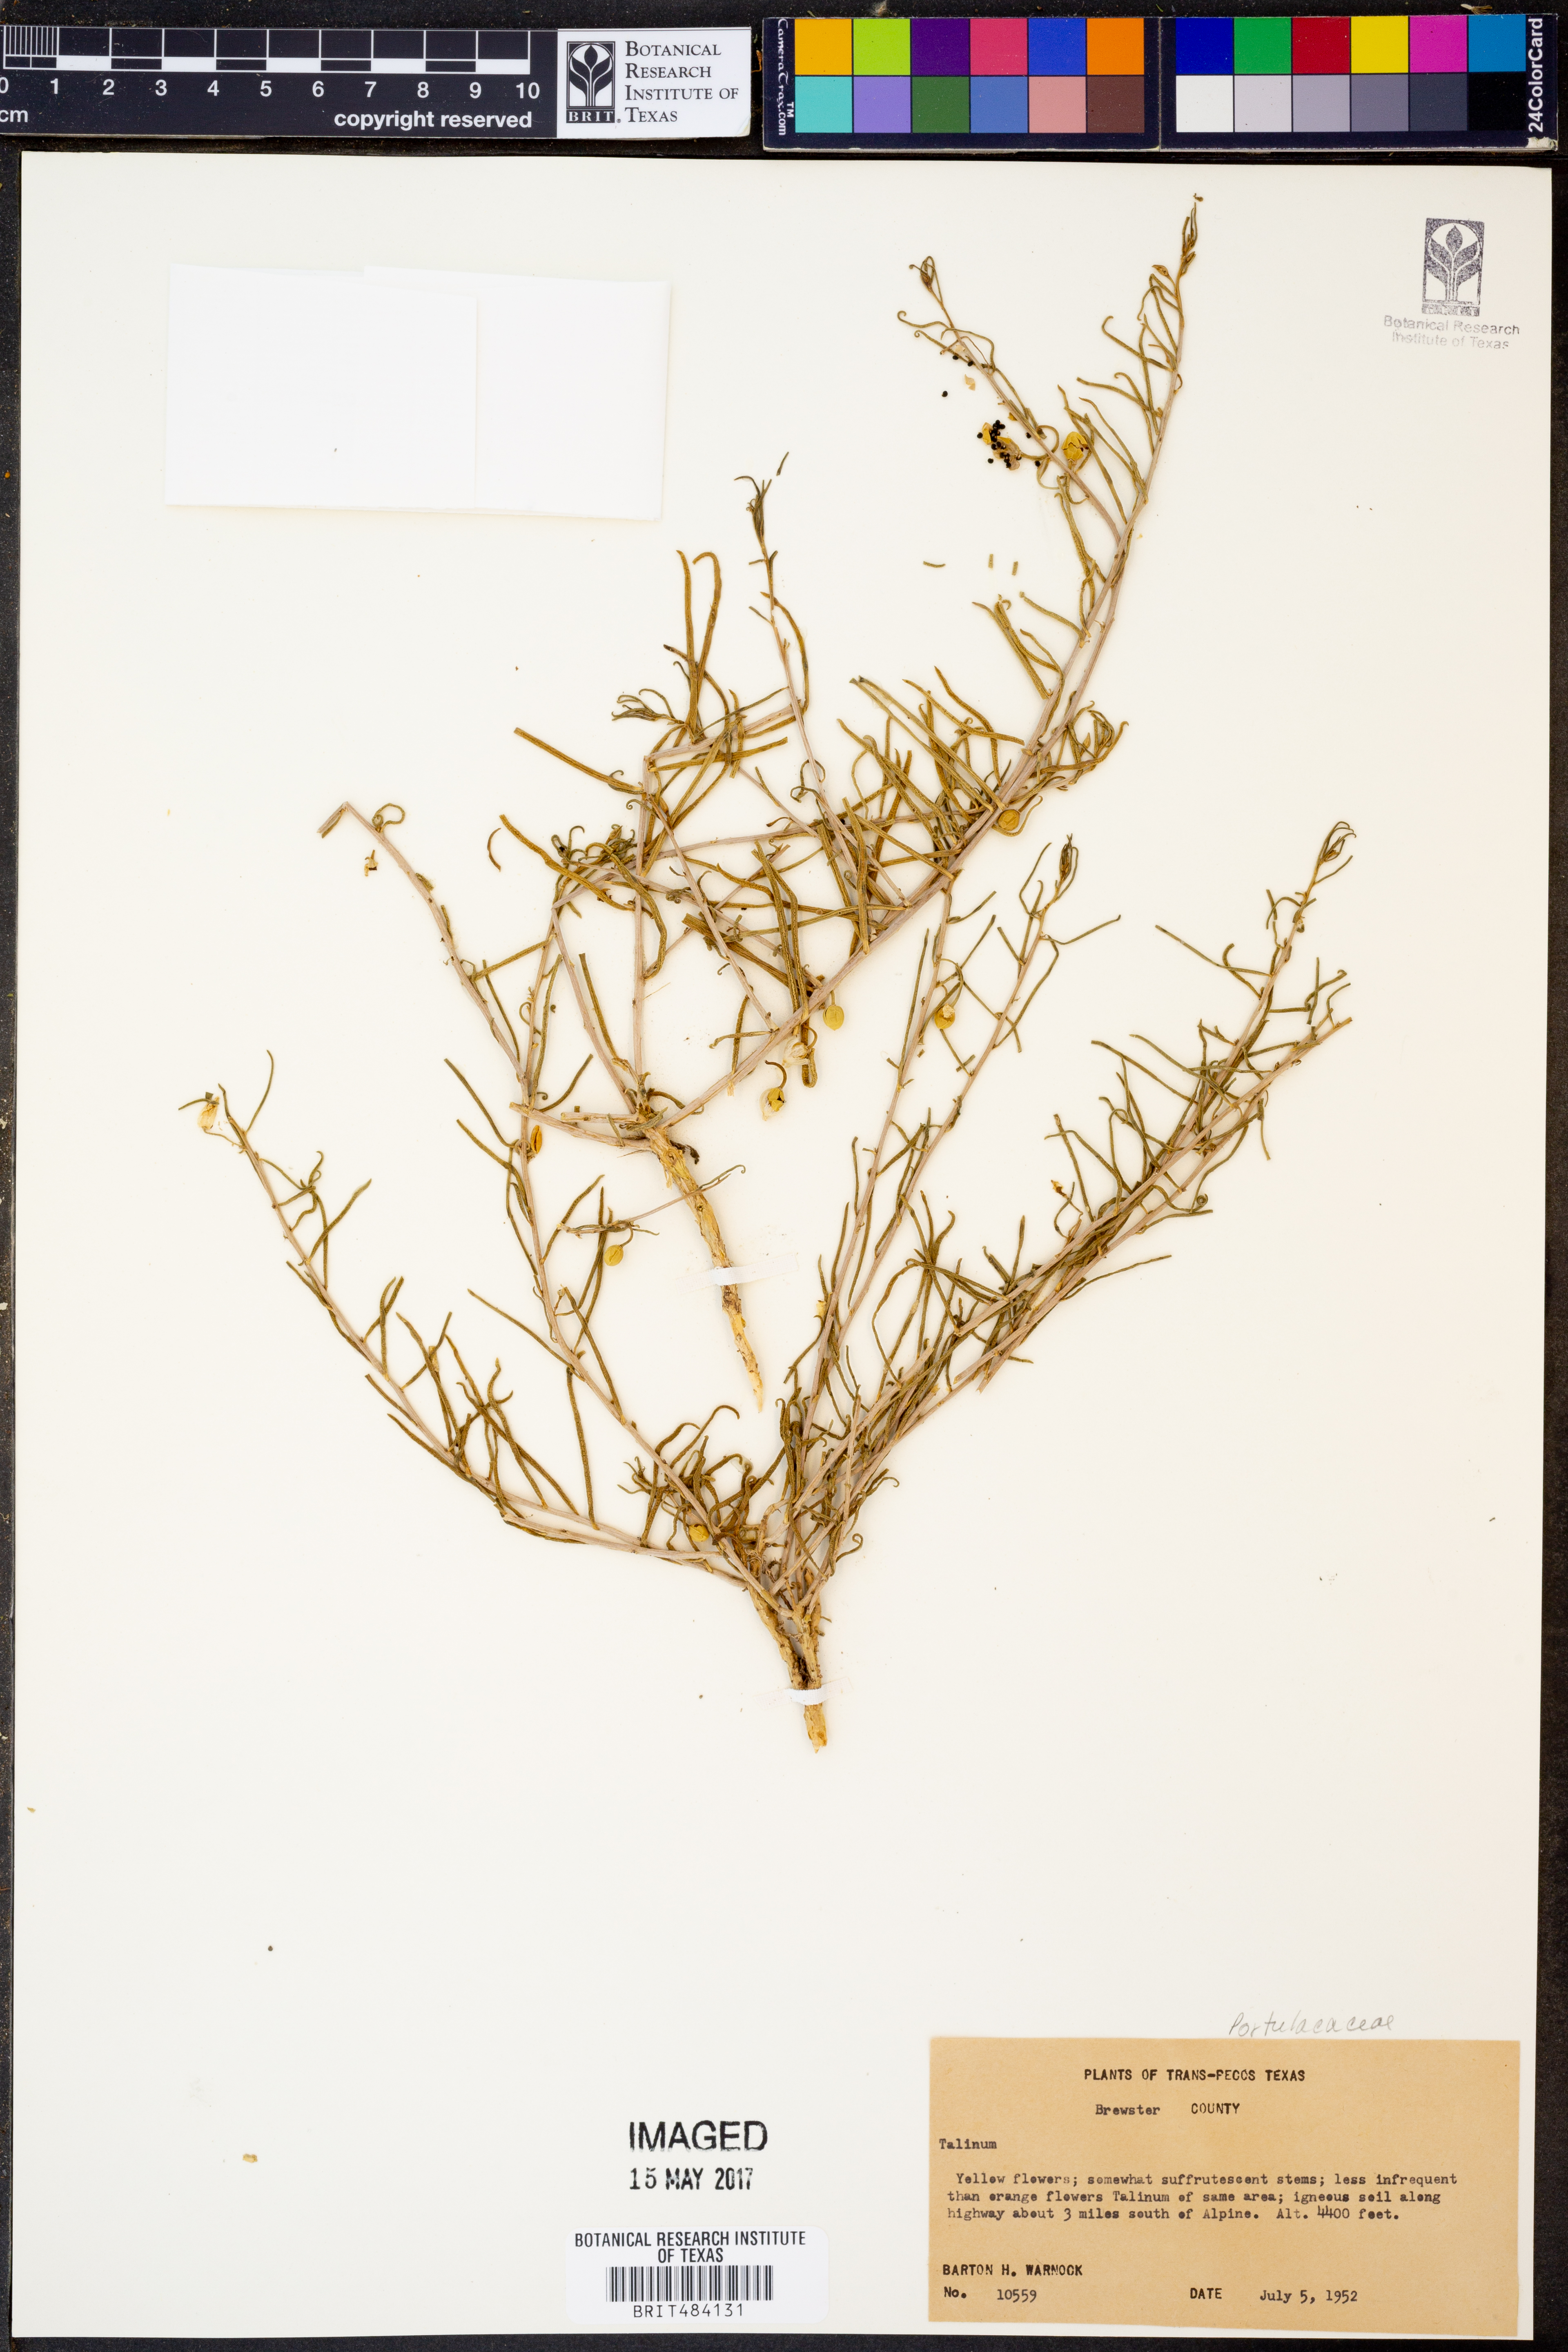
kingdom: Plantae
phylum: Tracheophyta
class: Magnoliopsida
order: Caryophyllales
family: Talinaceae
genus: Talinum
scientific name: Talinum
